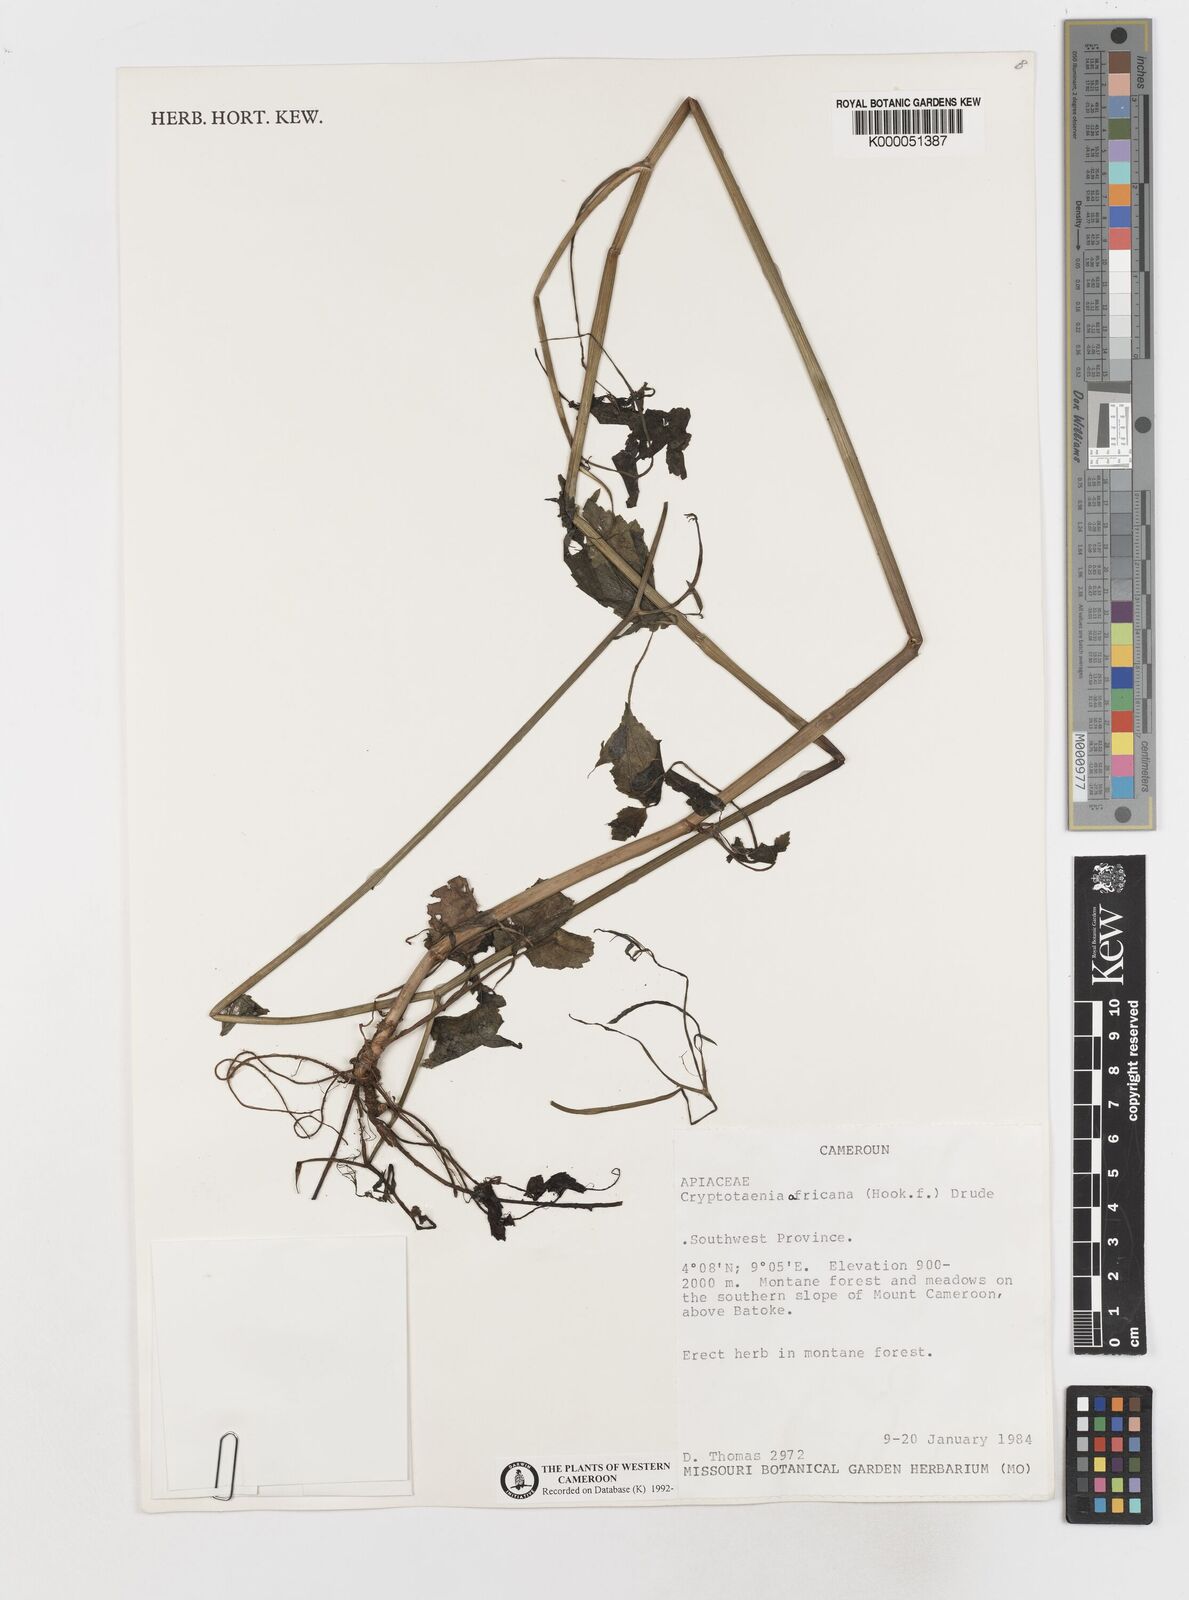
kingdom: Plantae
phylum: Tracheophyta
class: Magnoliopsida
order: Apiales
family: Apiaceae
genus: Cryptotaenia
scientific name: Cryptotaenia africana
